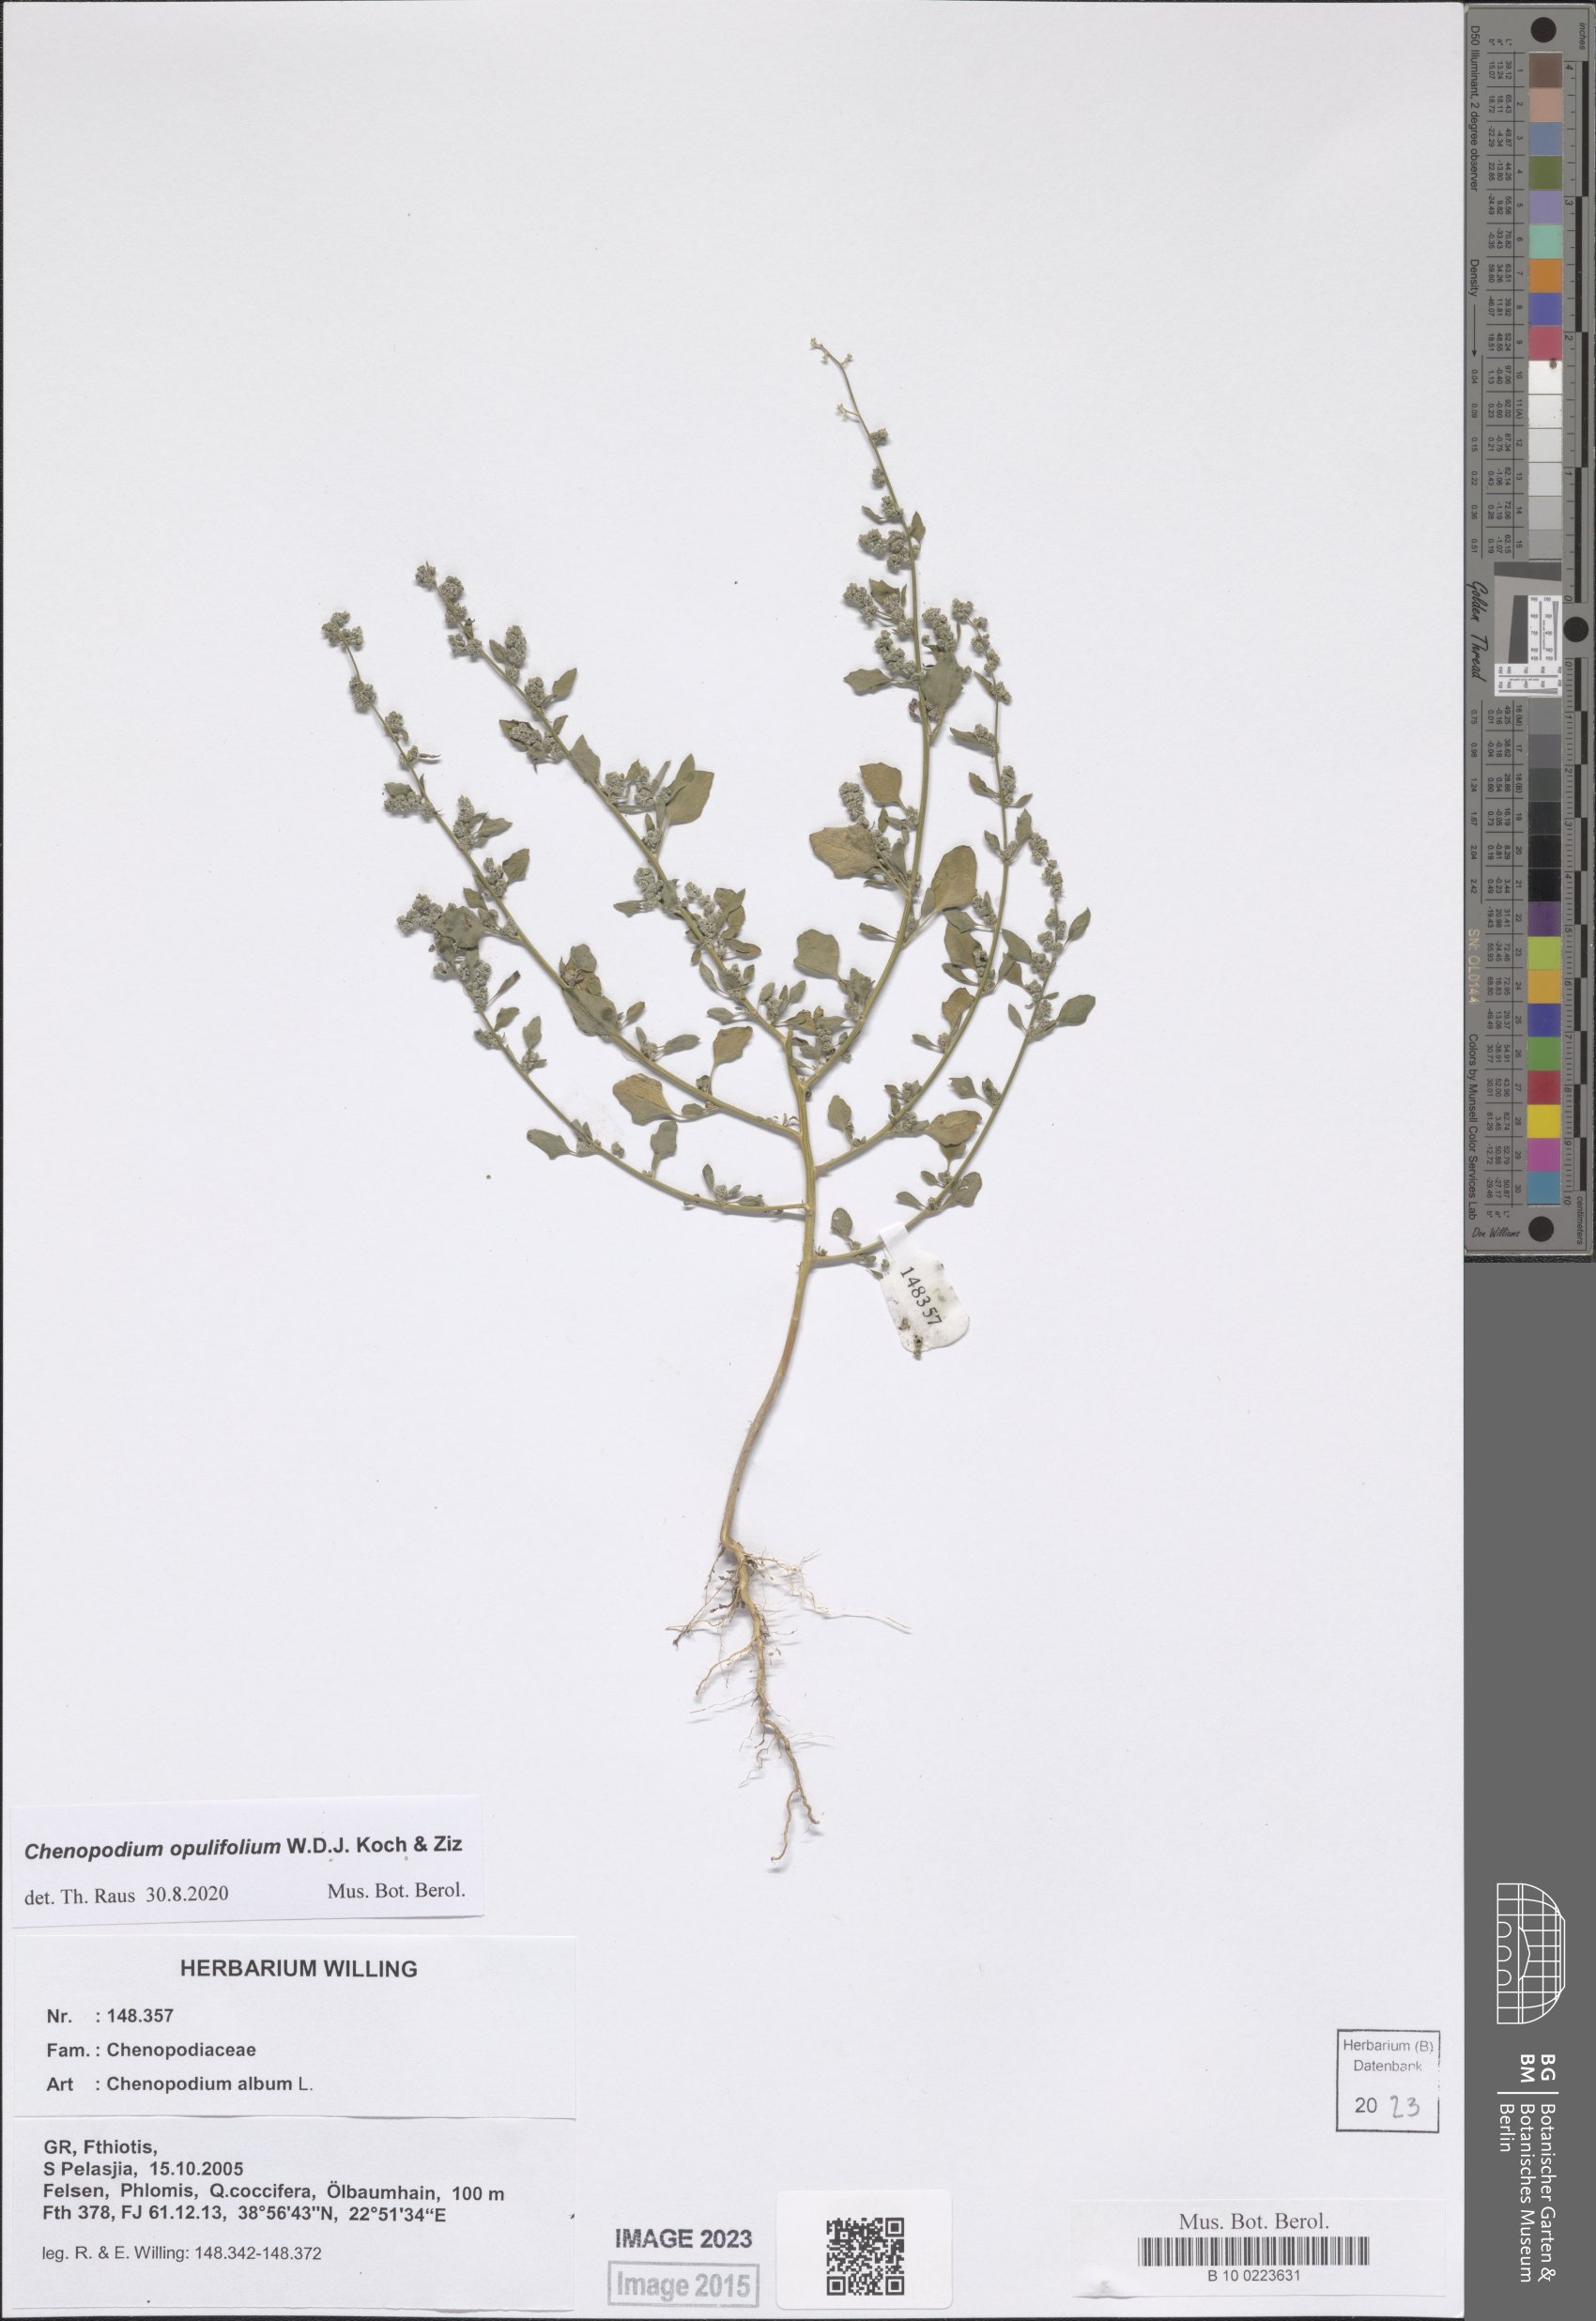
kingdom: Plantae
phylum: Tracheophyta
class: Magnoliopsida
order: Caryophyllales
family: Amaranthaceae
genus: Chenopodium
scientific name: Chenopodium opulifolium
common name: Grey goosefoot
